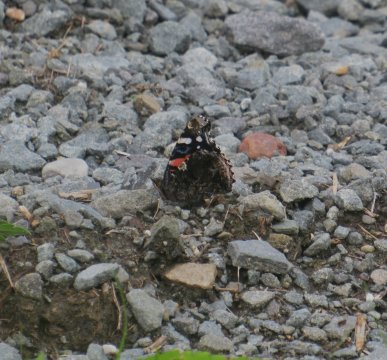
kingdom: Animalia
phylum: Arthropoda
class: Insecta
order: Lepidoptera
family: Nymphalidae
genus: Vanessa
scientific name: Vanessa atalanta
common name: Red Admiral
